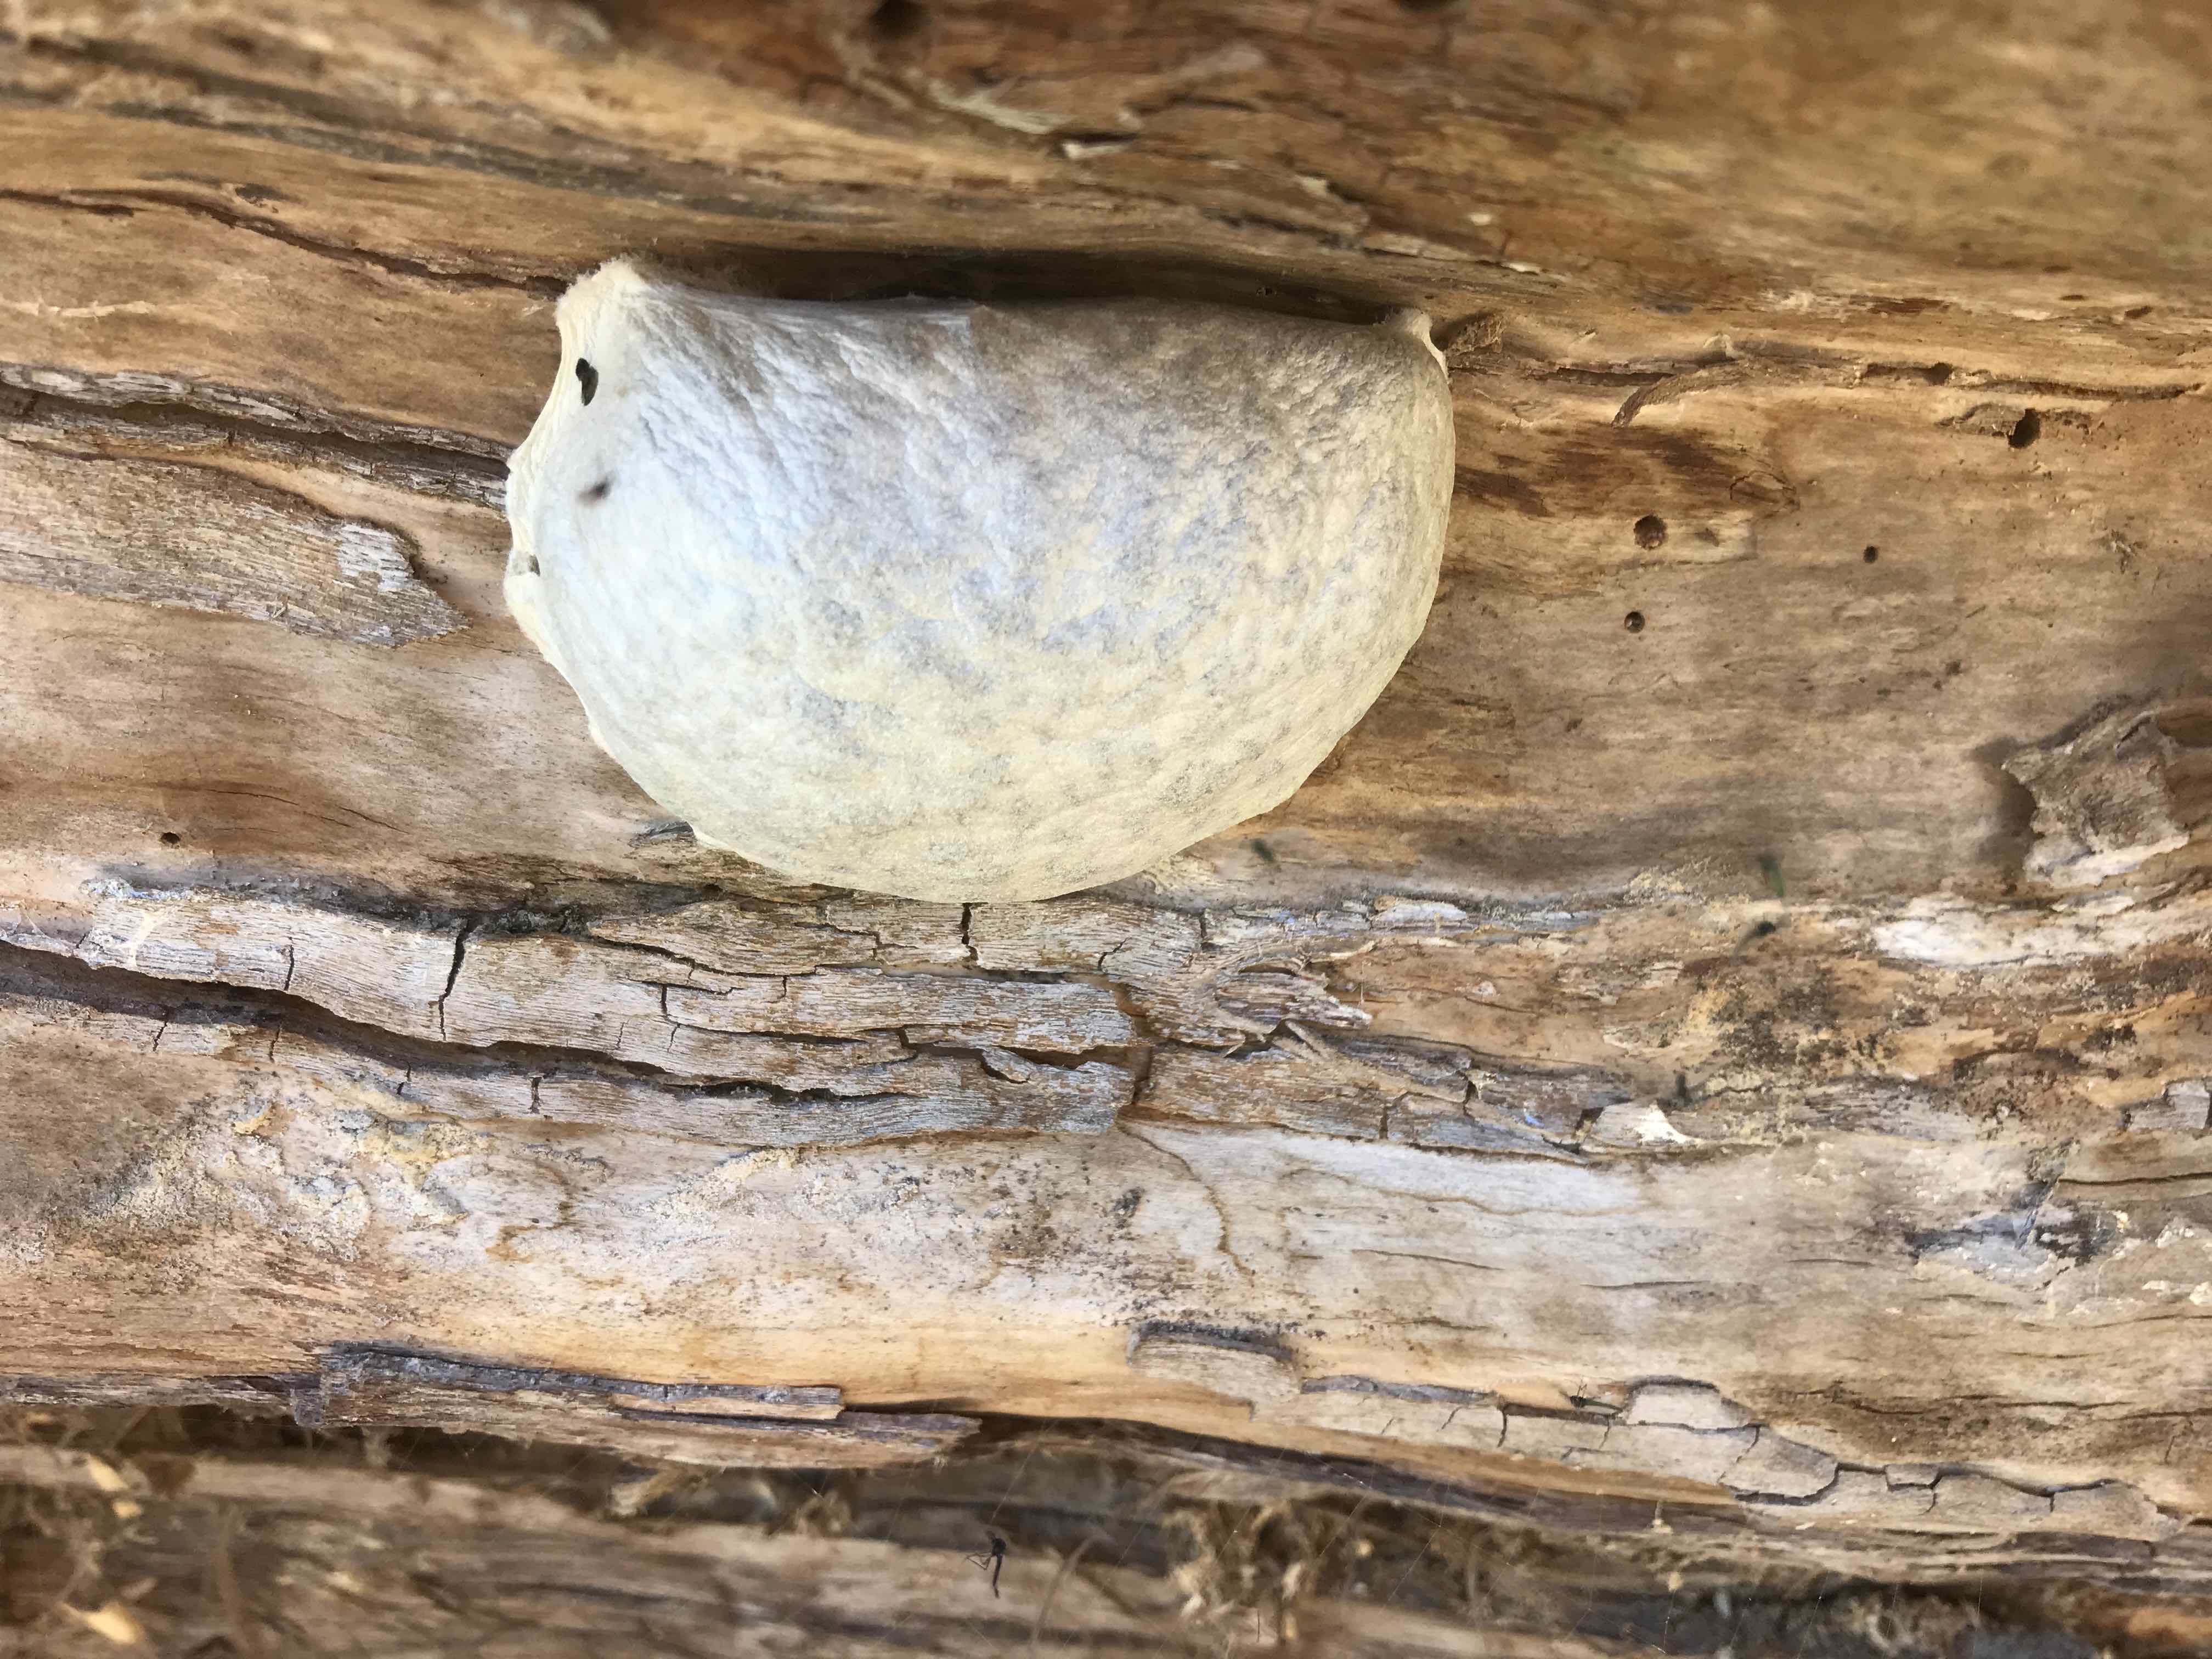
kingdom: Protozoa
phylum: Mycetozoa
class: Myxomycetes
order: Cribrariales
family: Tubiferaceae
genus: Reticularia
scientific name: Reticularia lycoperdon
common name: skinnende støvpude
